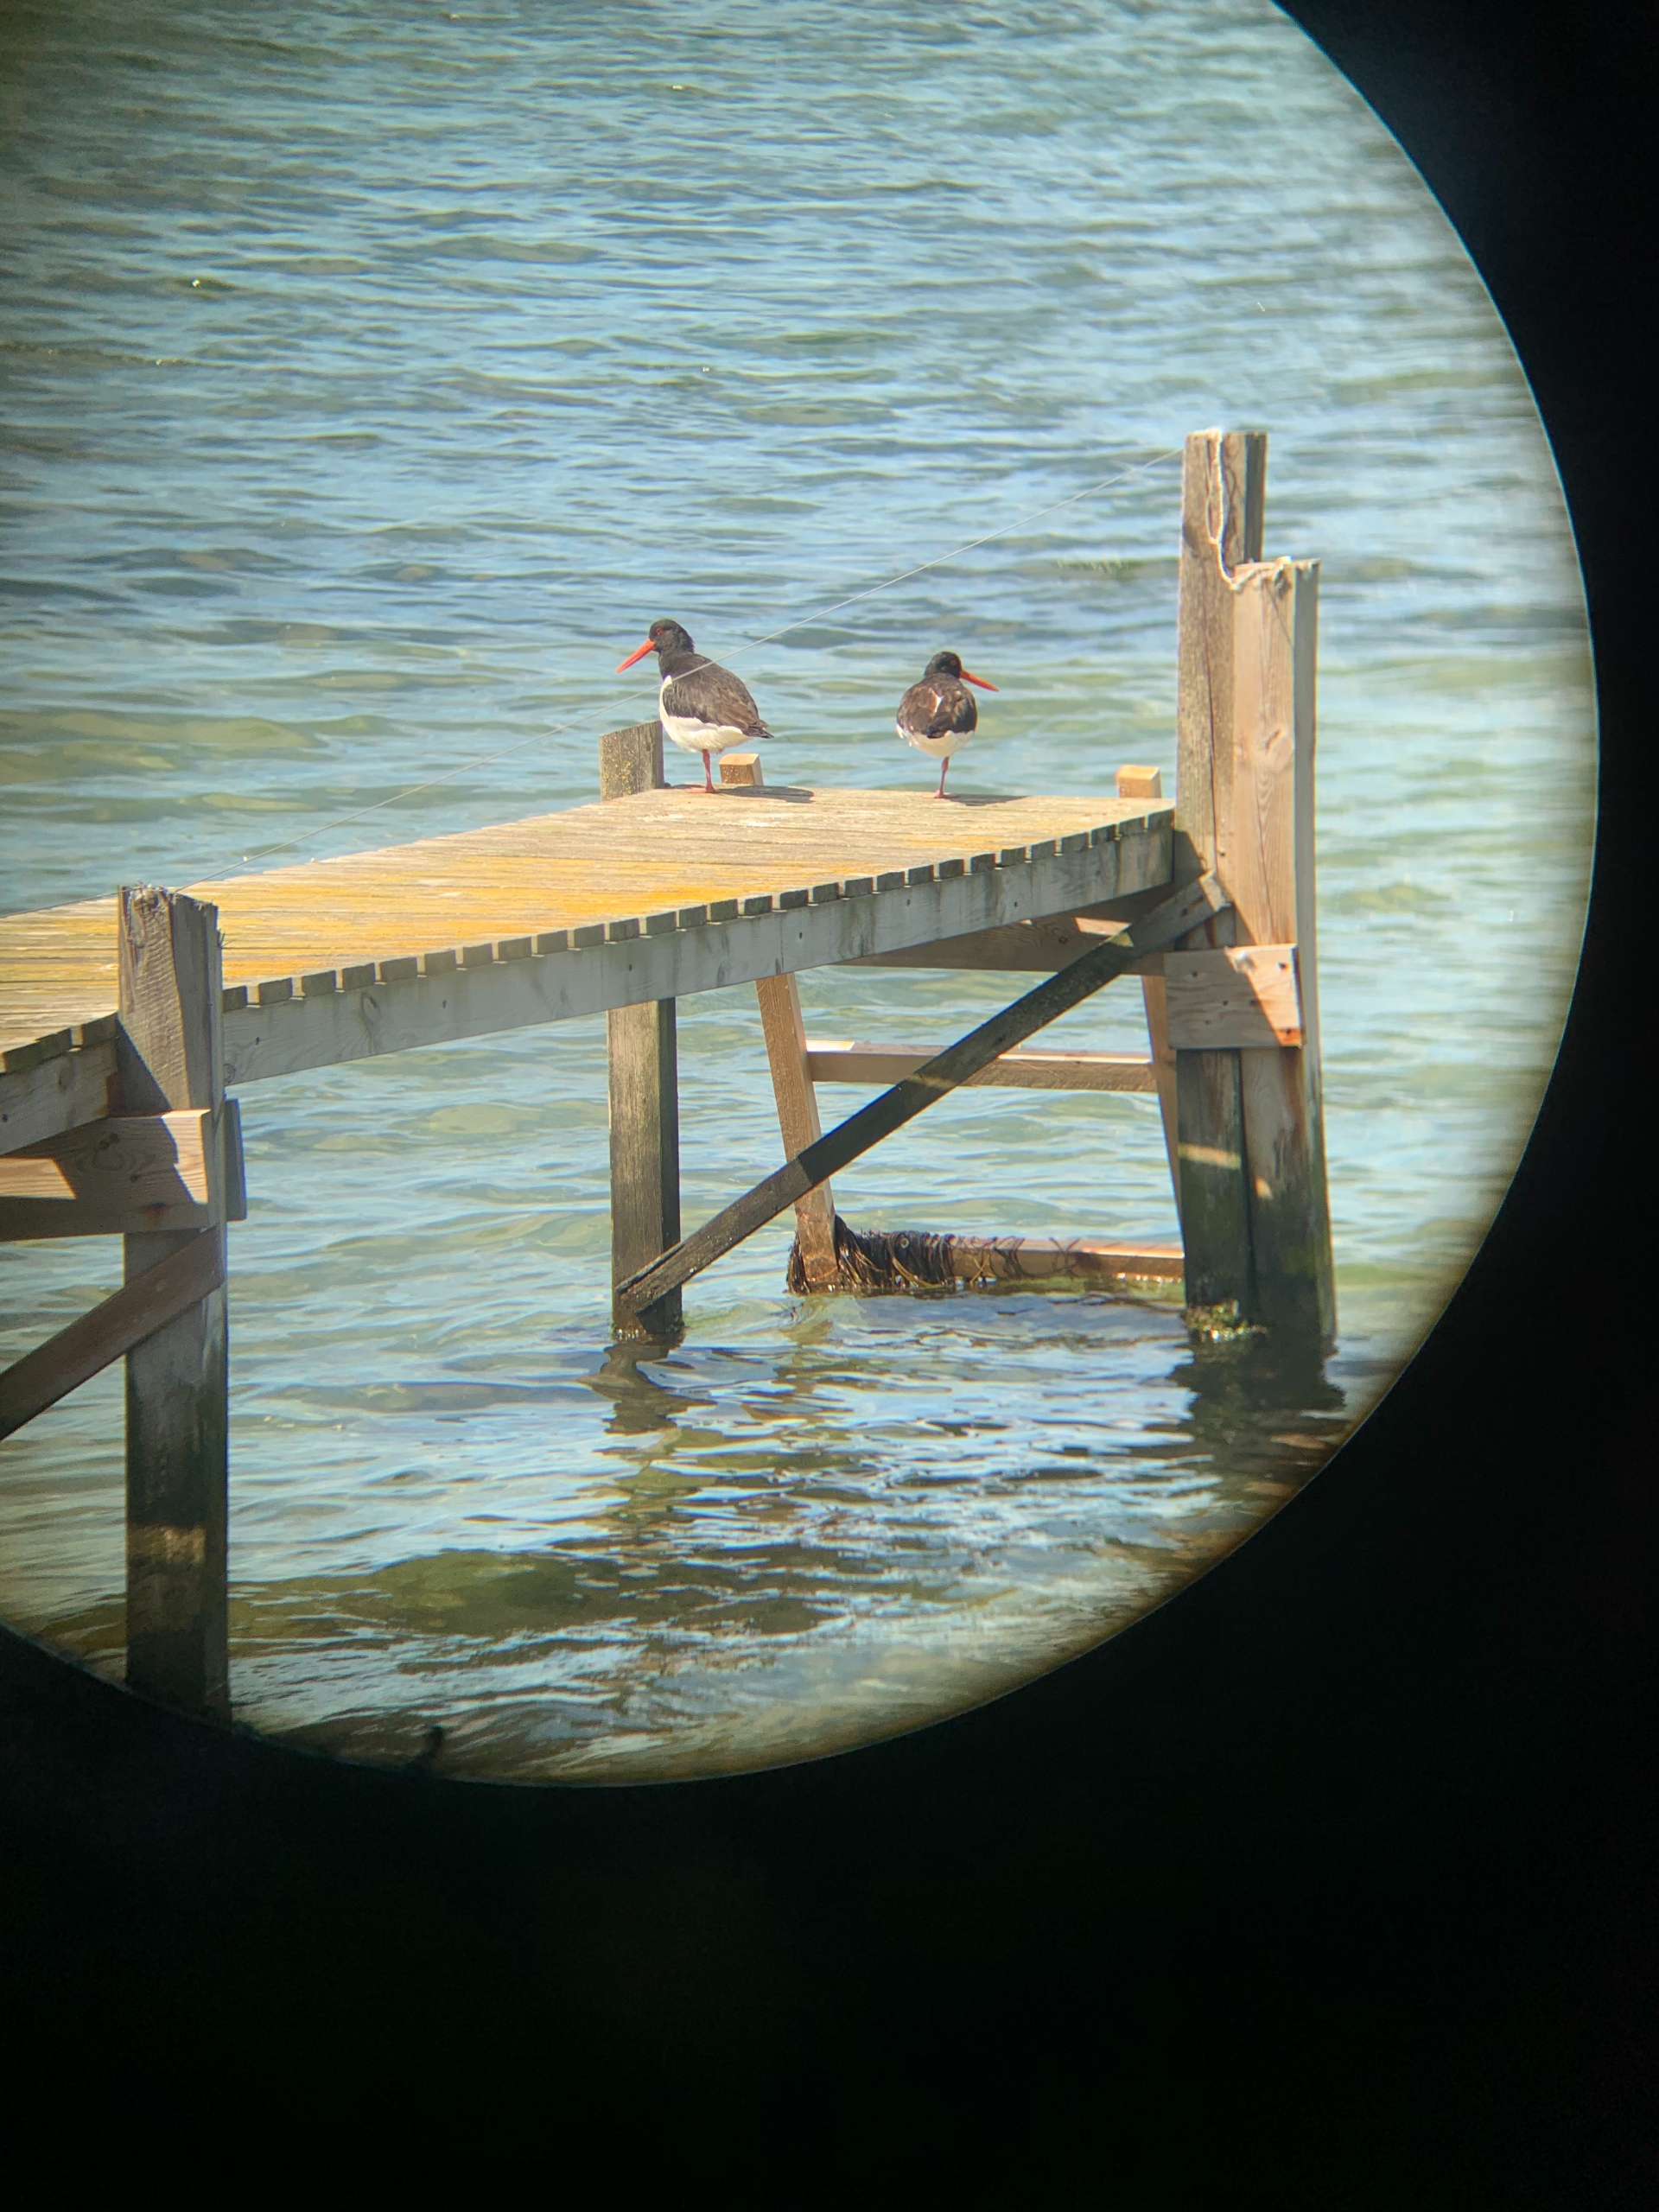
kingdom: Animalia
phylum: Chordata
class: Aves
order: Charadriiformes
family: Haematopodidae
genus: Haematopus
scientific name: Haematopus ostralegus
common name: Strandskade
